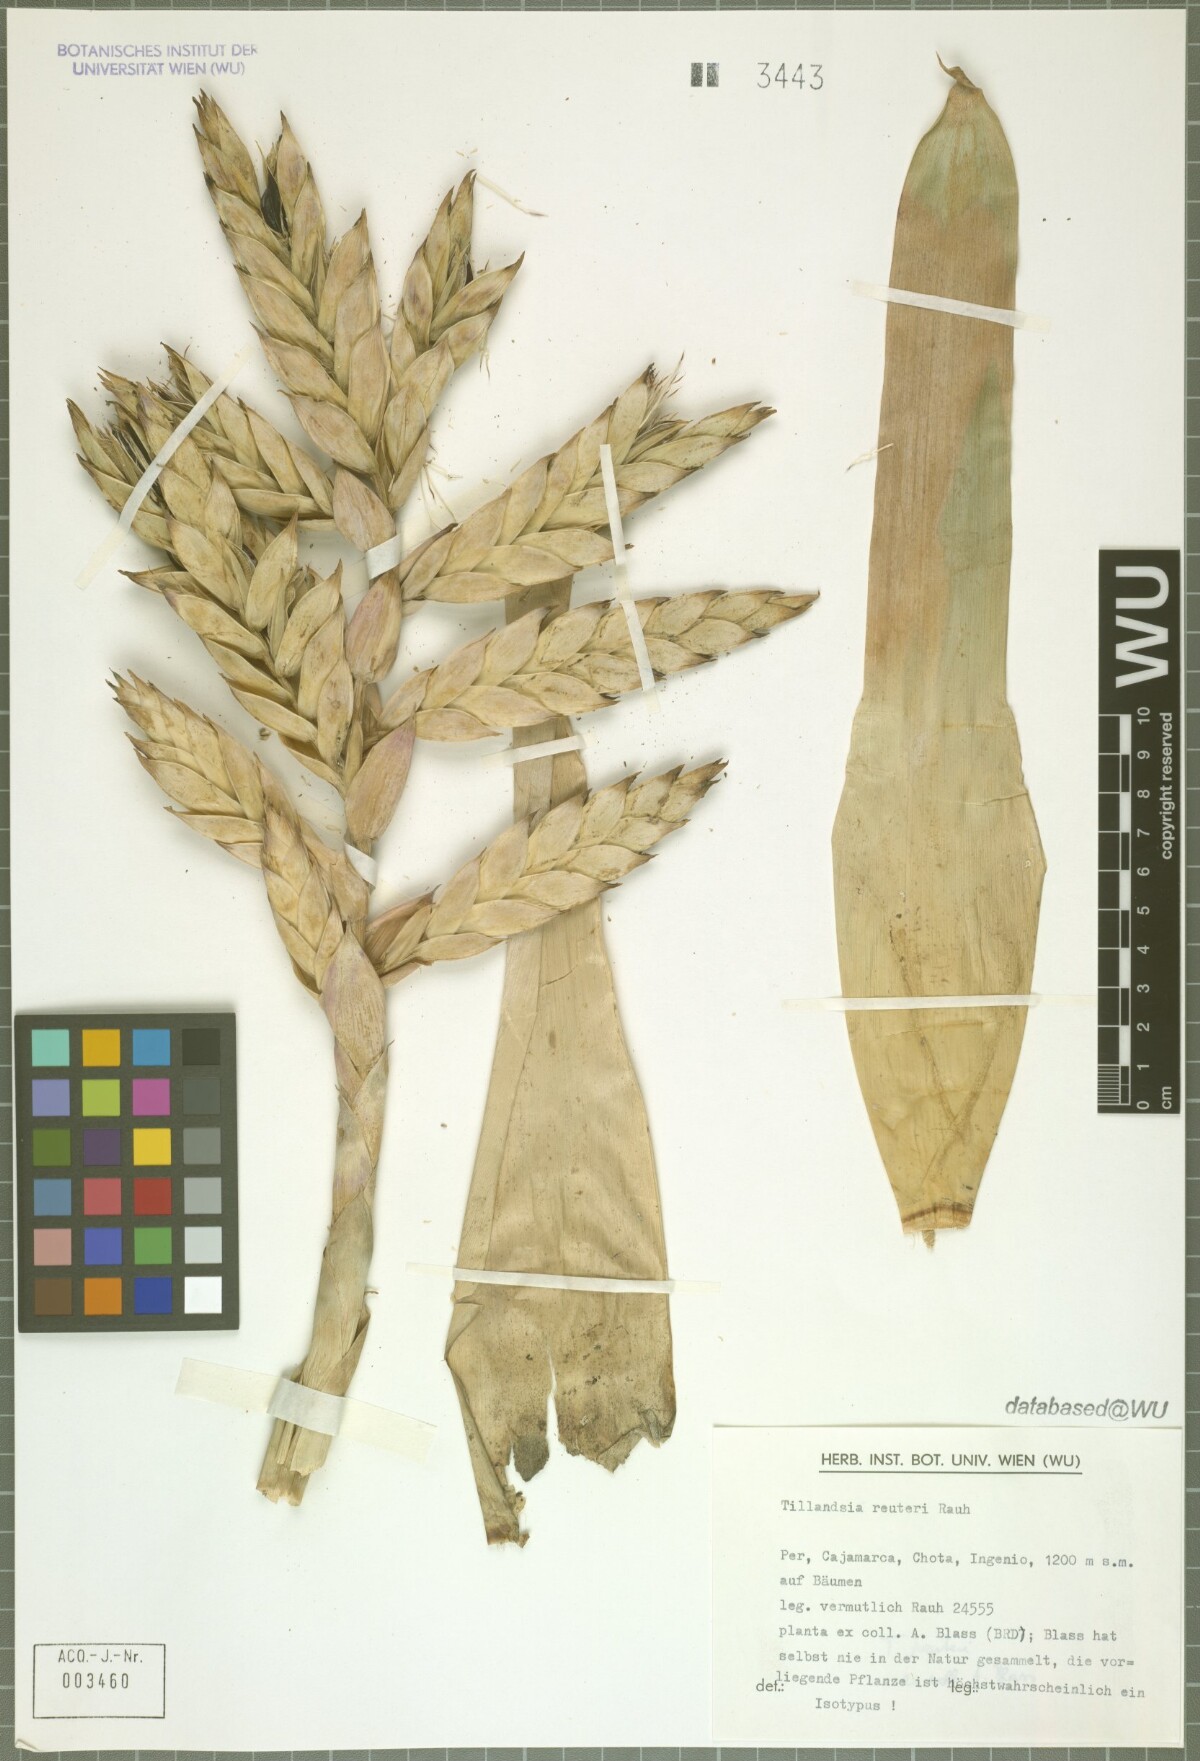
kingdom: Plantae
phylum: Tracheophyta
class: Liliopsida
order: Poales
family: Bromeliaceae
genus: Tillandsia
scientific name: Tillandsia reuteri
